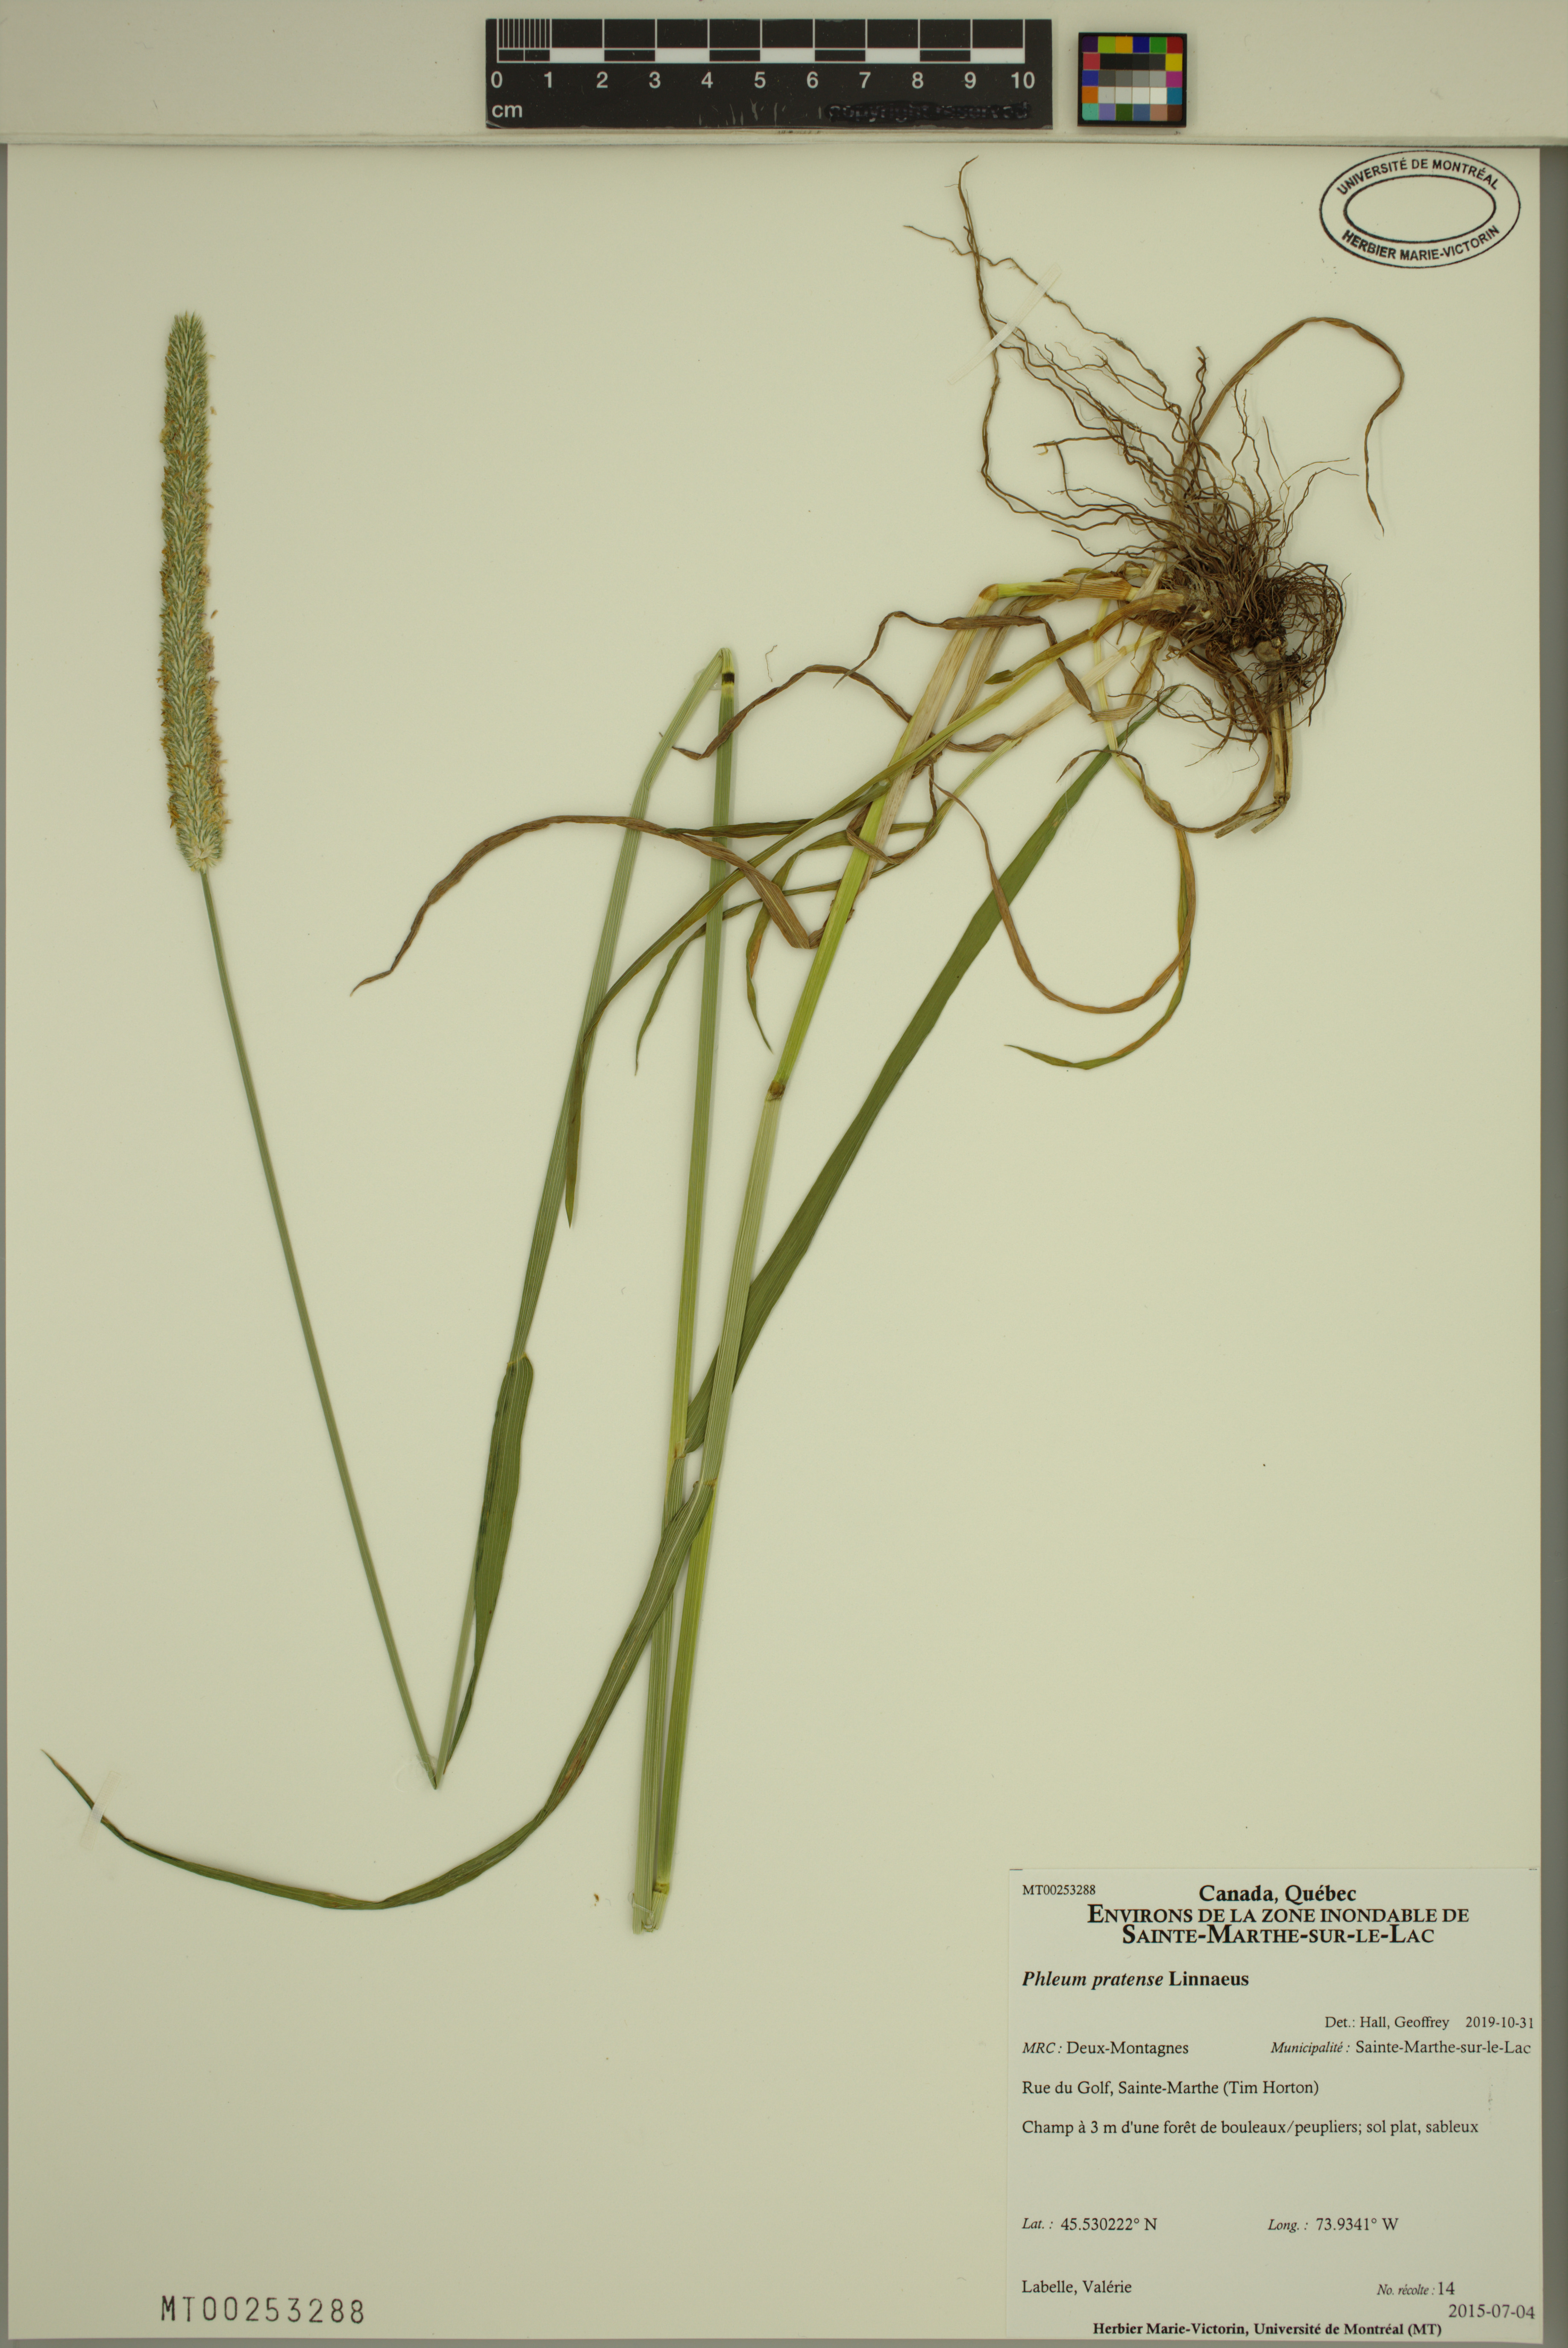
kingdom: Plantae
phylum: Tracheophyta
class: Liliopsida
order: Poales
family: Poaceae
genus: Phleum
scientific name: Phleum pratense
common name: Timothy grass
